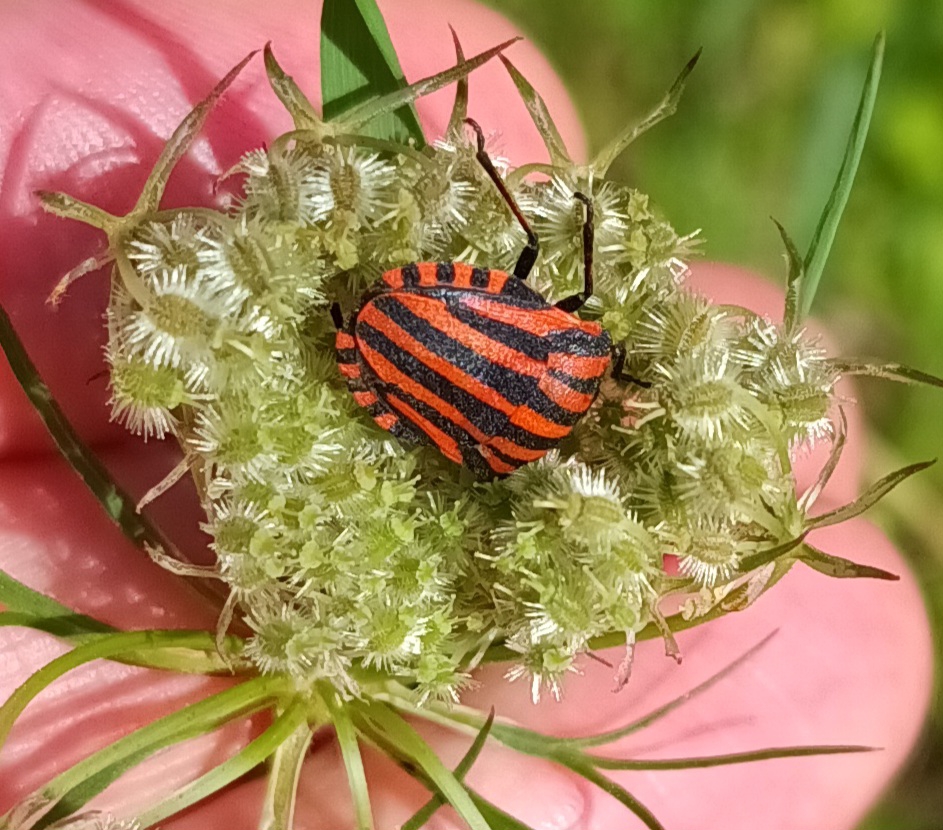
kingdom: Animalia
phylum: Arthropoda
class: Insecta
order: Hemiptera
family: Pentatomidae
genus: Graphosoma
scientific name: Graphosoma italicum
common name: Stribetæge
